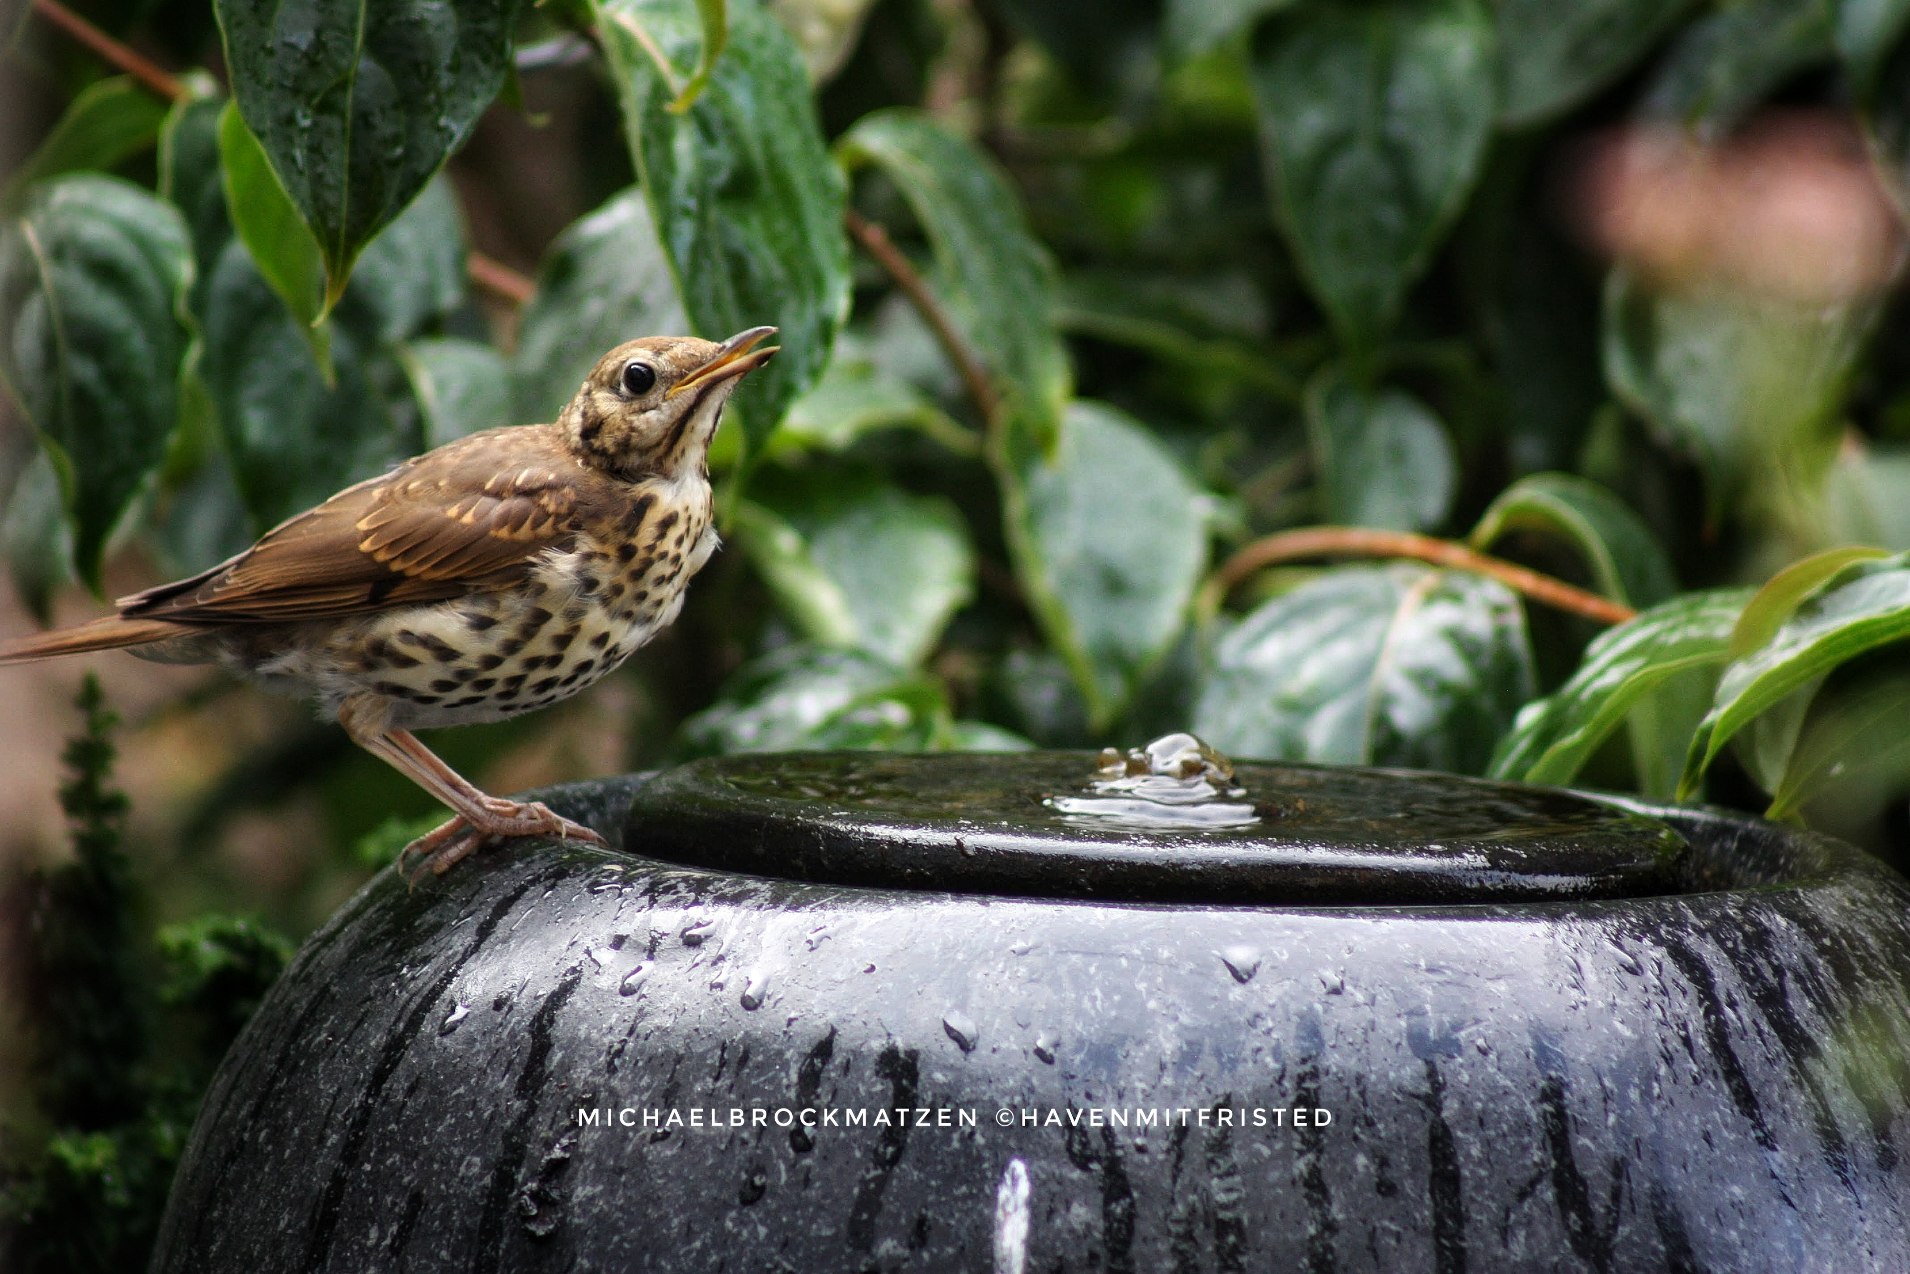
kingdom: Animalia
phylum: Chordata
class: Aves
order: Passeriformes
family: Turdidae
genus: Turdus
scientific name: Turdus philomelos
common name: Sangdrossel
